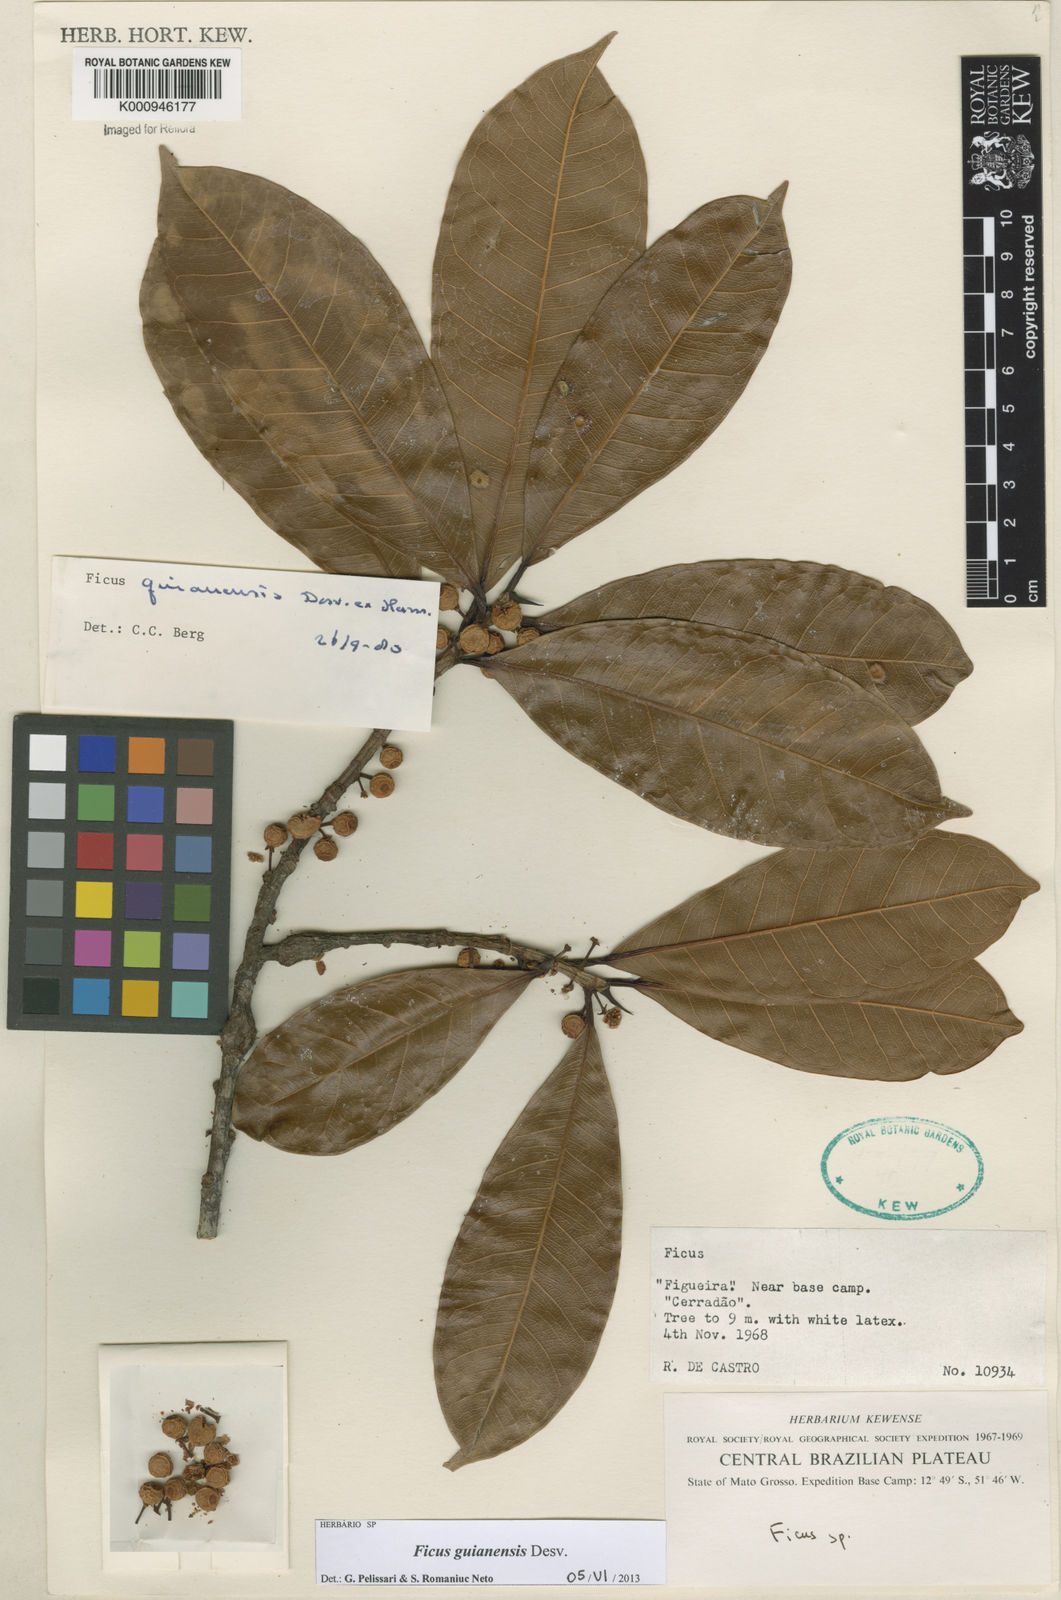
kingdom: Plantae
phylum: Tracheophyta
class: Magnoliopsida
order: Rosales
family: Moraceae
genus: Ficus
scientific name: Ficus
